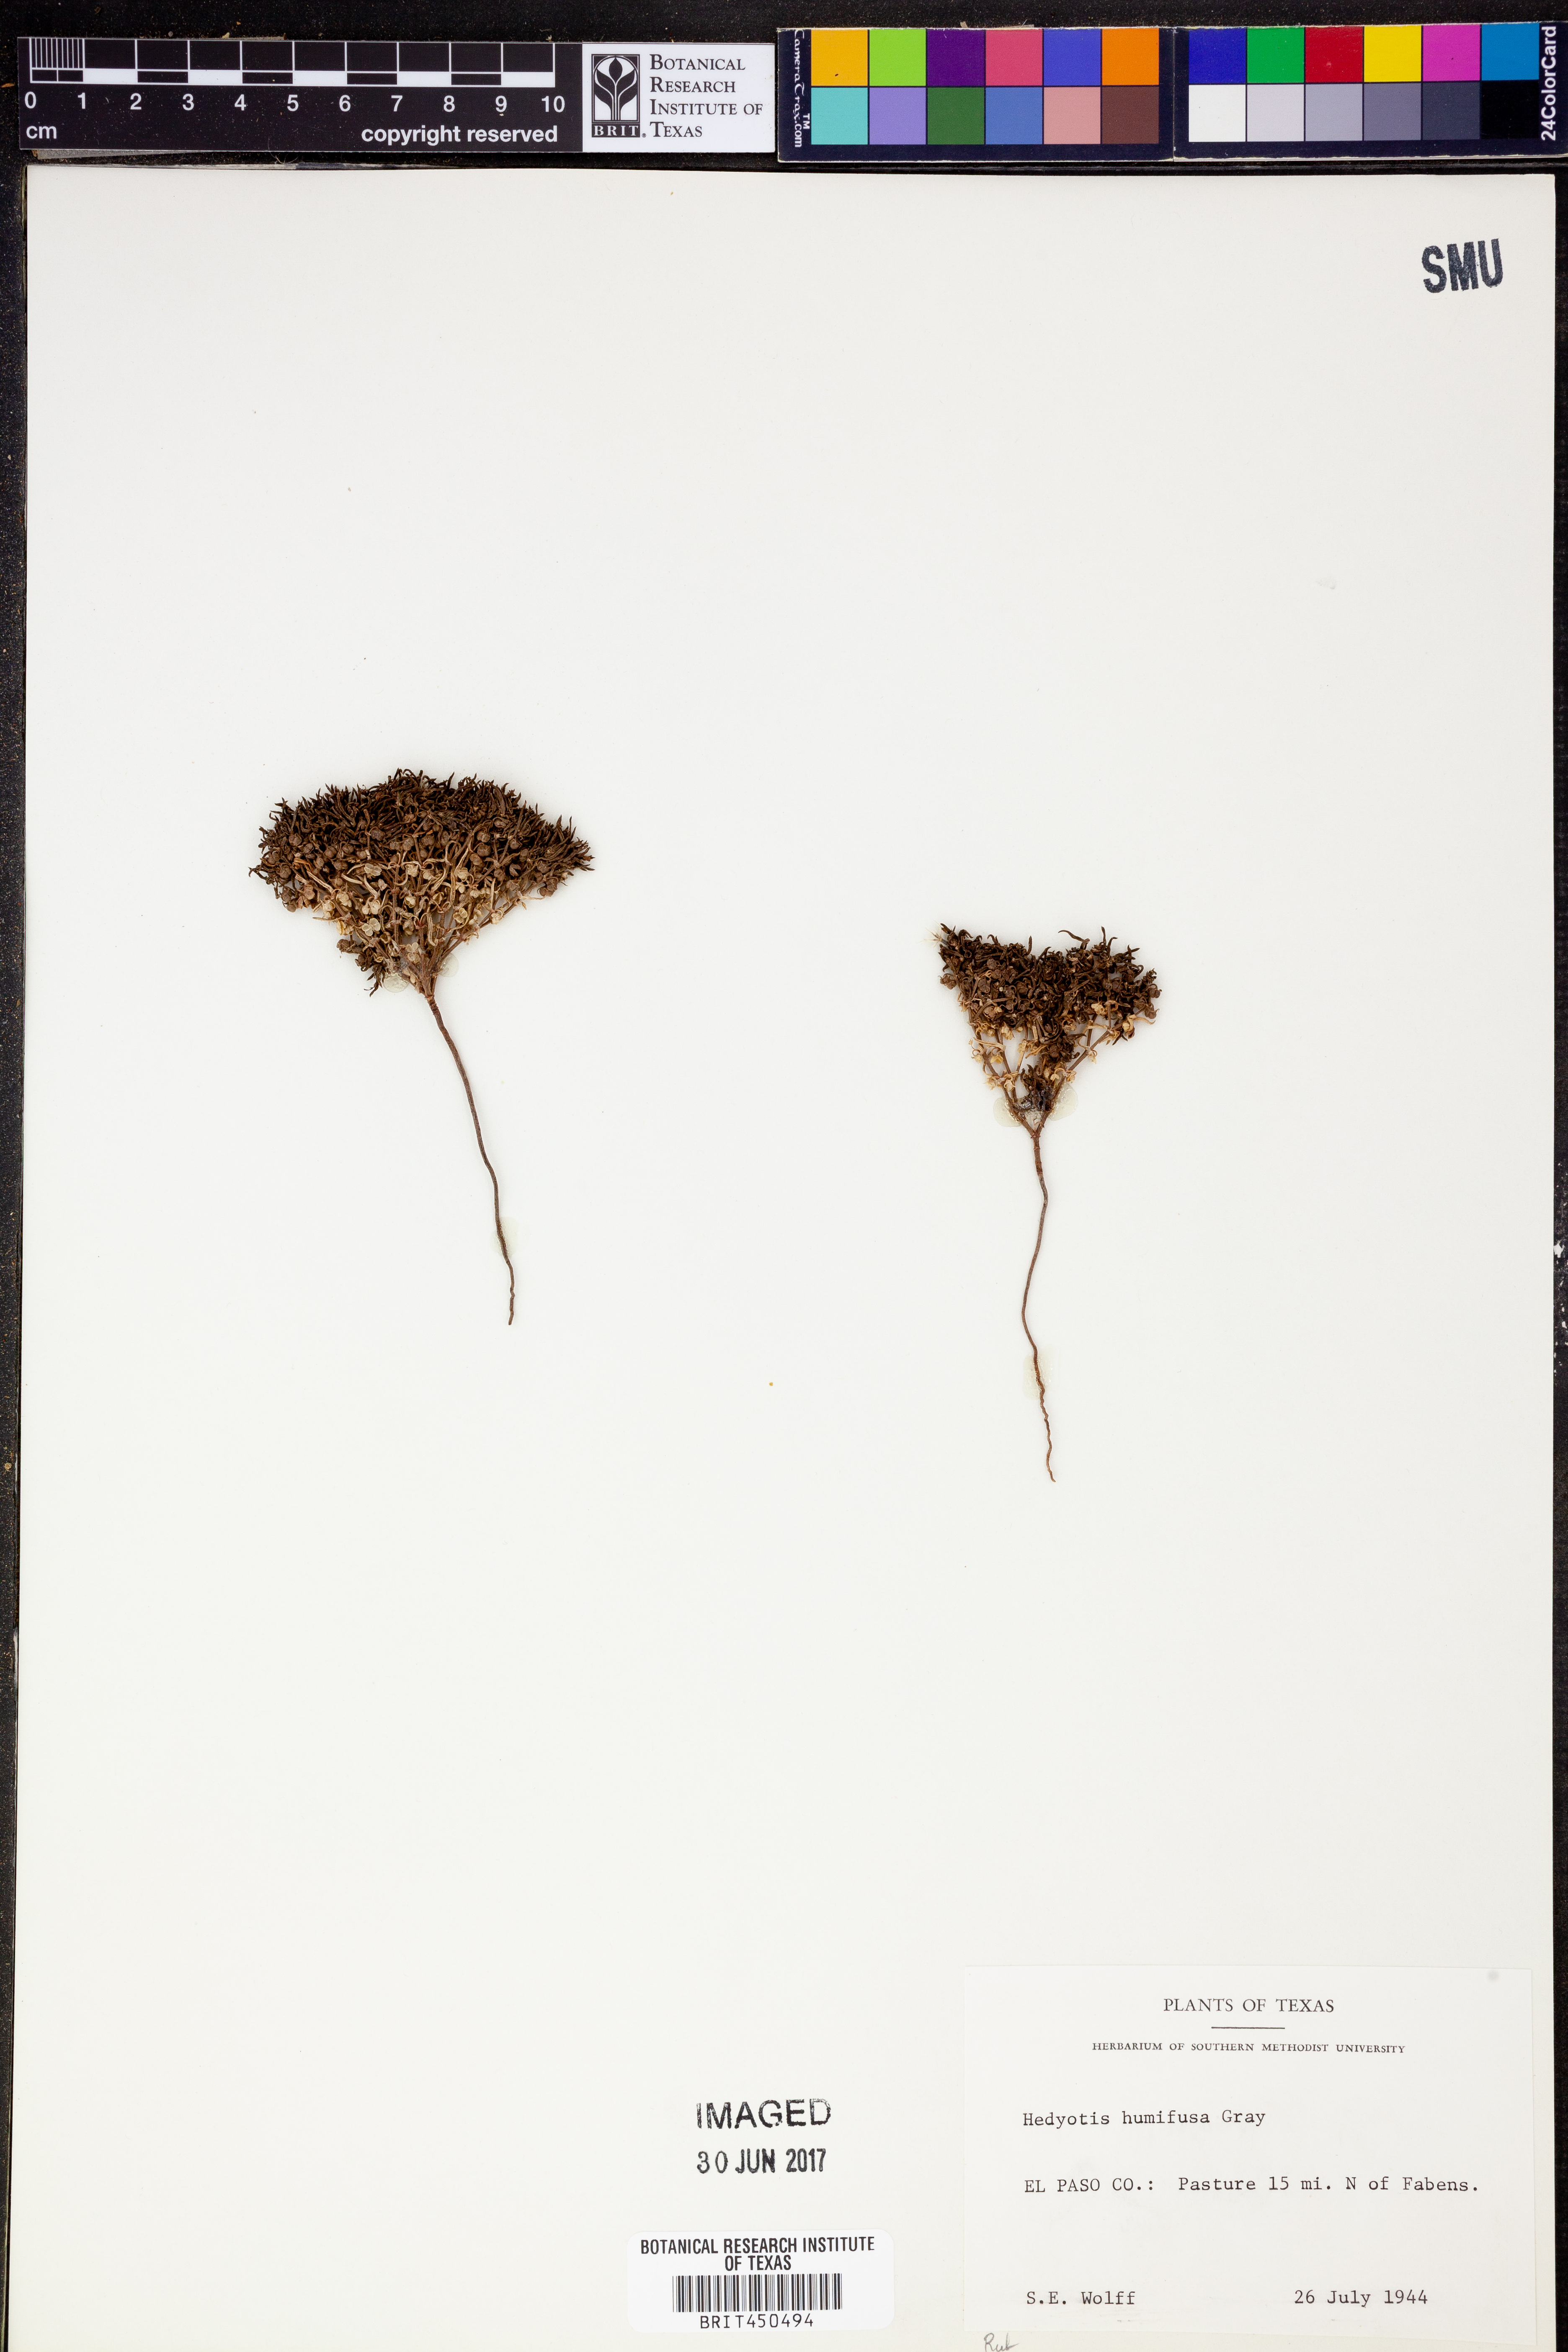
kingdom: Plantae
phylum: Tracheophyta
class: Magnoliopsida
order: Gentianales
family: Rubiaceae
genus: Houstonia
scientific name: Houstonia humifusa
